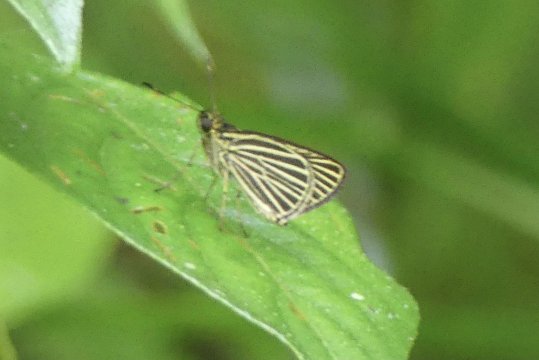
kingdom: Animalia
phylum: Arthropoda
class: Insecta
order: Lepidoptera
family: Hesperiidae
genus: Callimormus
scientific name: Callimormus radiola
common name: Radiant Skipper
